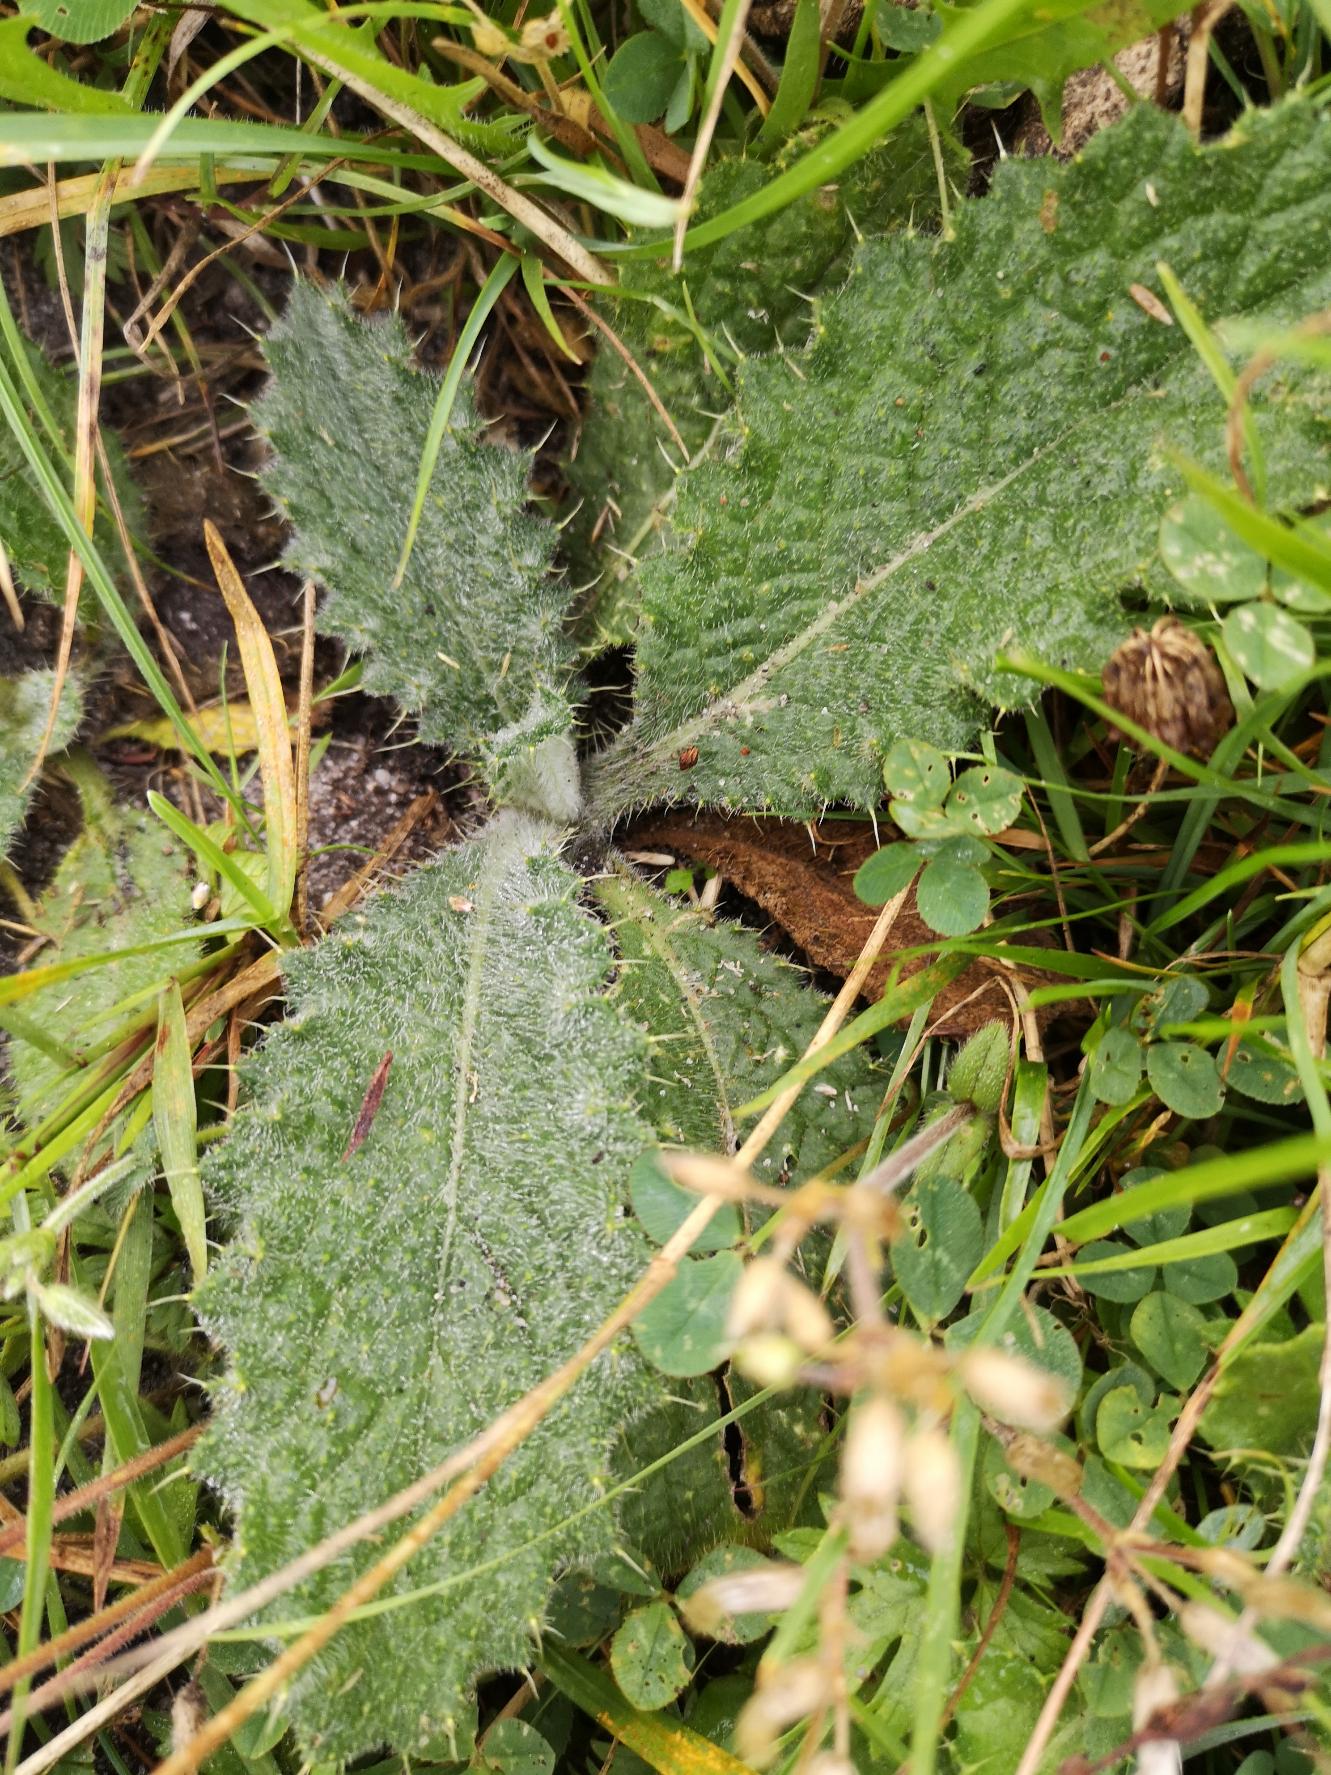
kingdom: Plantae
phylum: Tracheophyta
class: Magnoliopsida
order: Asterales
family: Asteraceae
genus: Cirsium
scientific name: Cirsium vulgare
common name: Horse-tidsel
